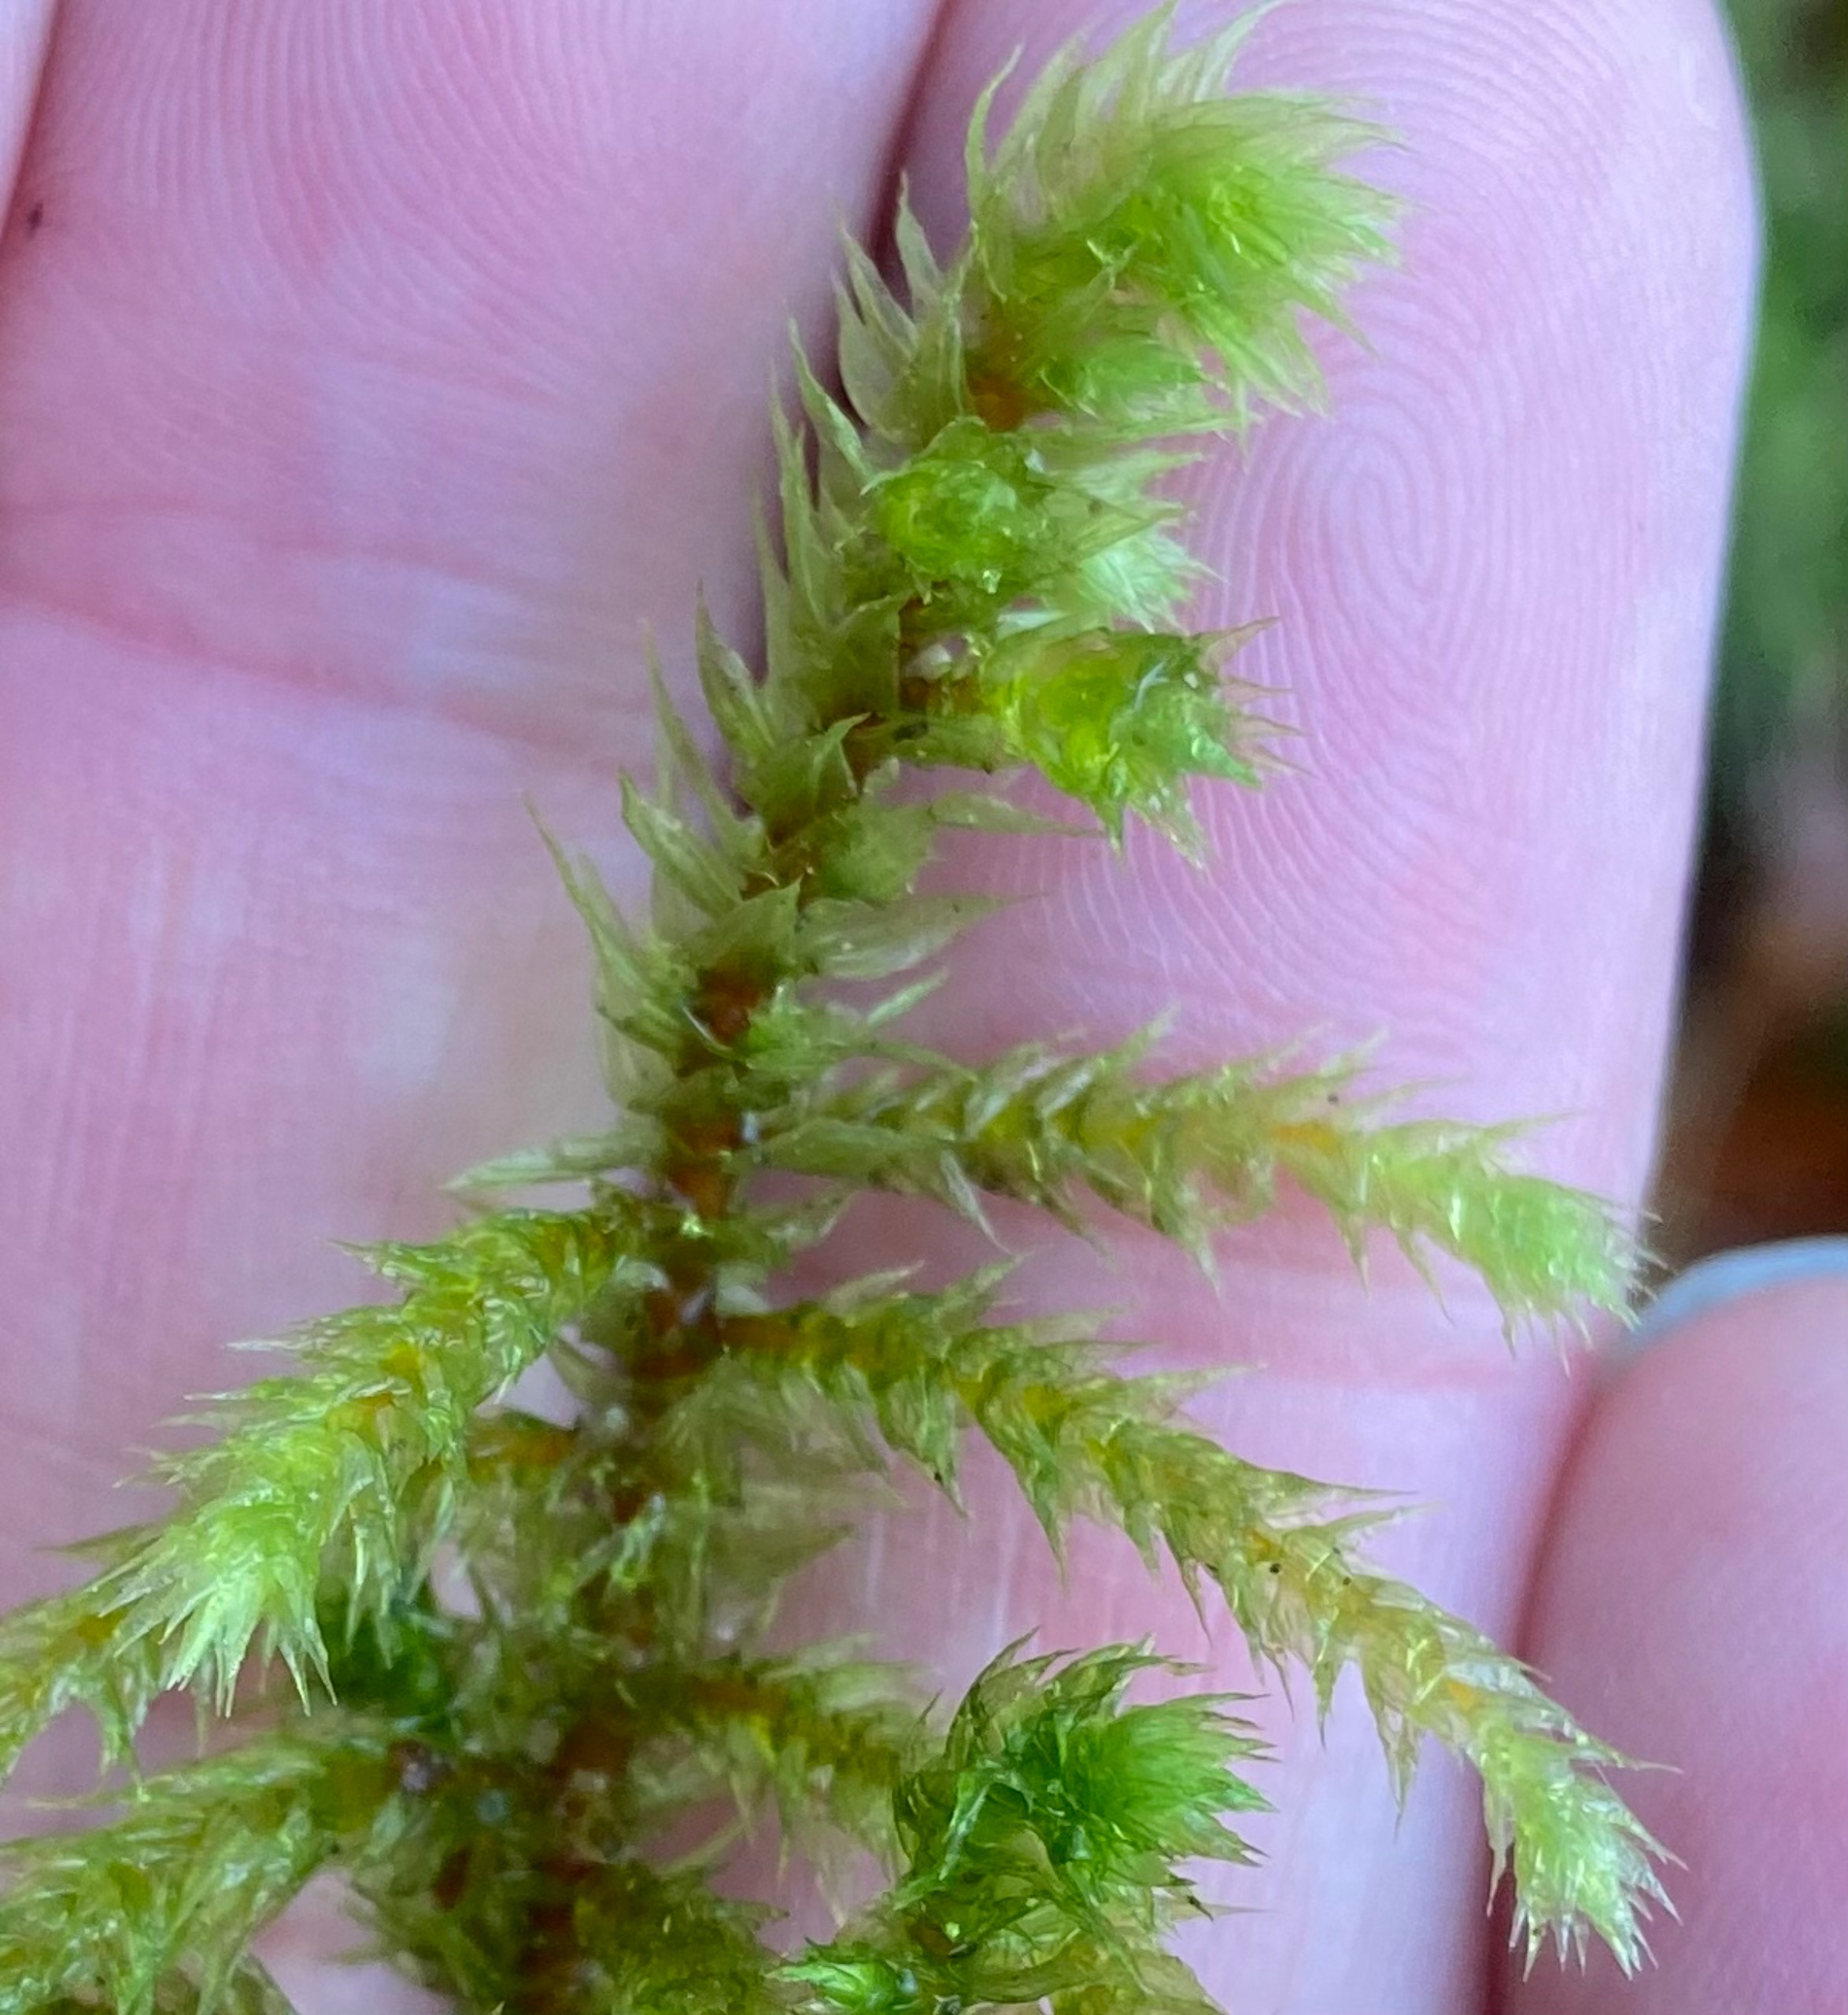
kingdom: Plantae
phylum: Bryophyta
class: Bryopsida
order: Hypnales
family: Hylocomiaceae
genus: Hylocomiadelphus
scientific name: Hylocomiadelphus triquetrus
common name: Stor kransemos
